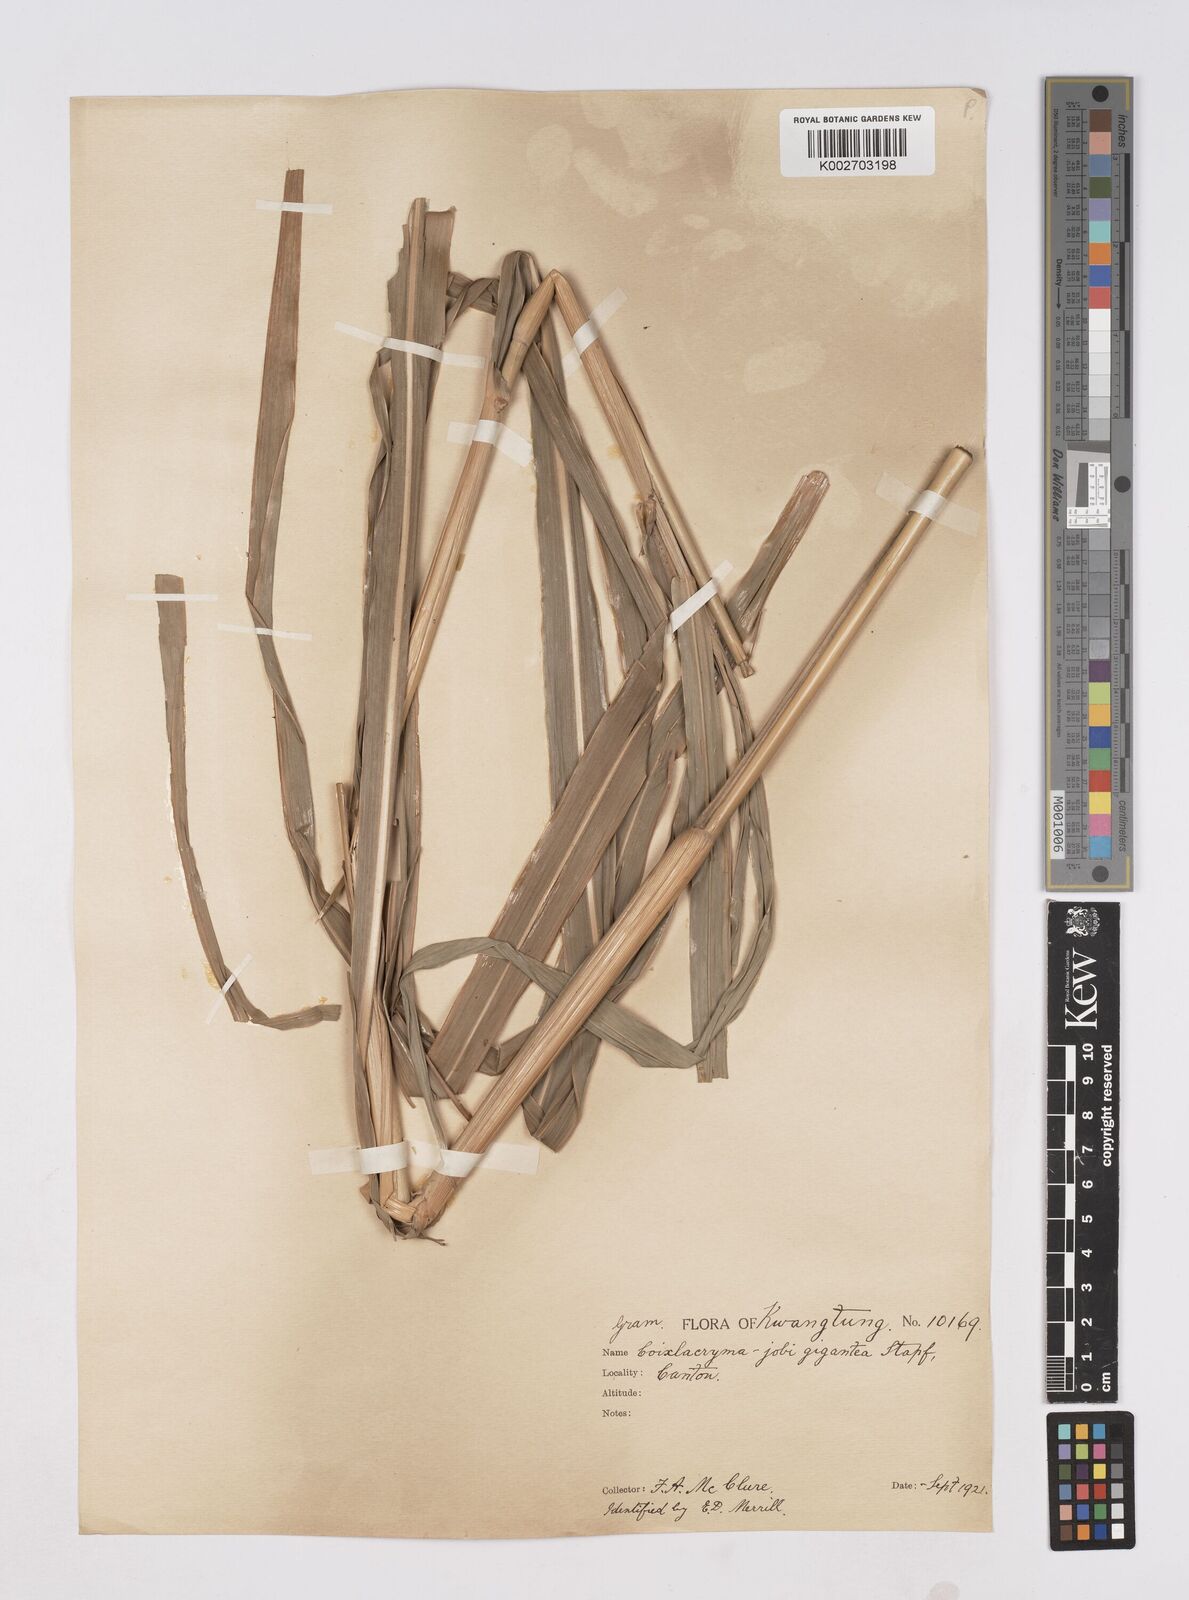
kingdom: Plantae
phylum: Tracheophyta
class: Liliopsida
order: Poales
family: Poaceae
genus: Coix
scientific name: Coix aquatica
